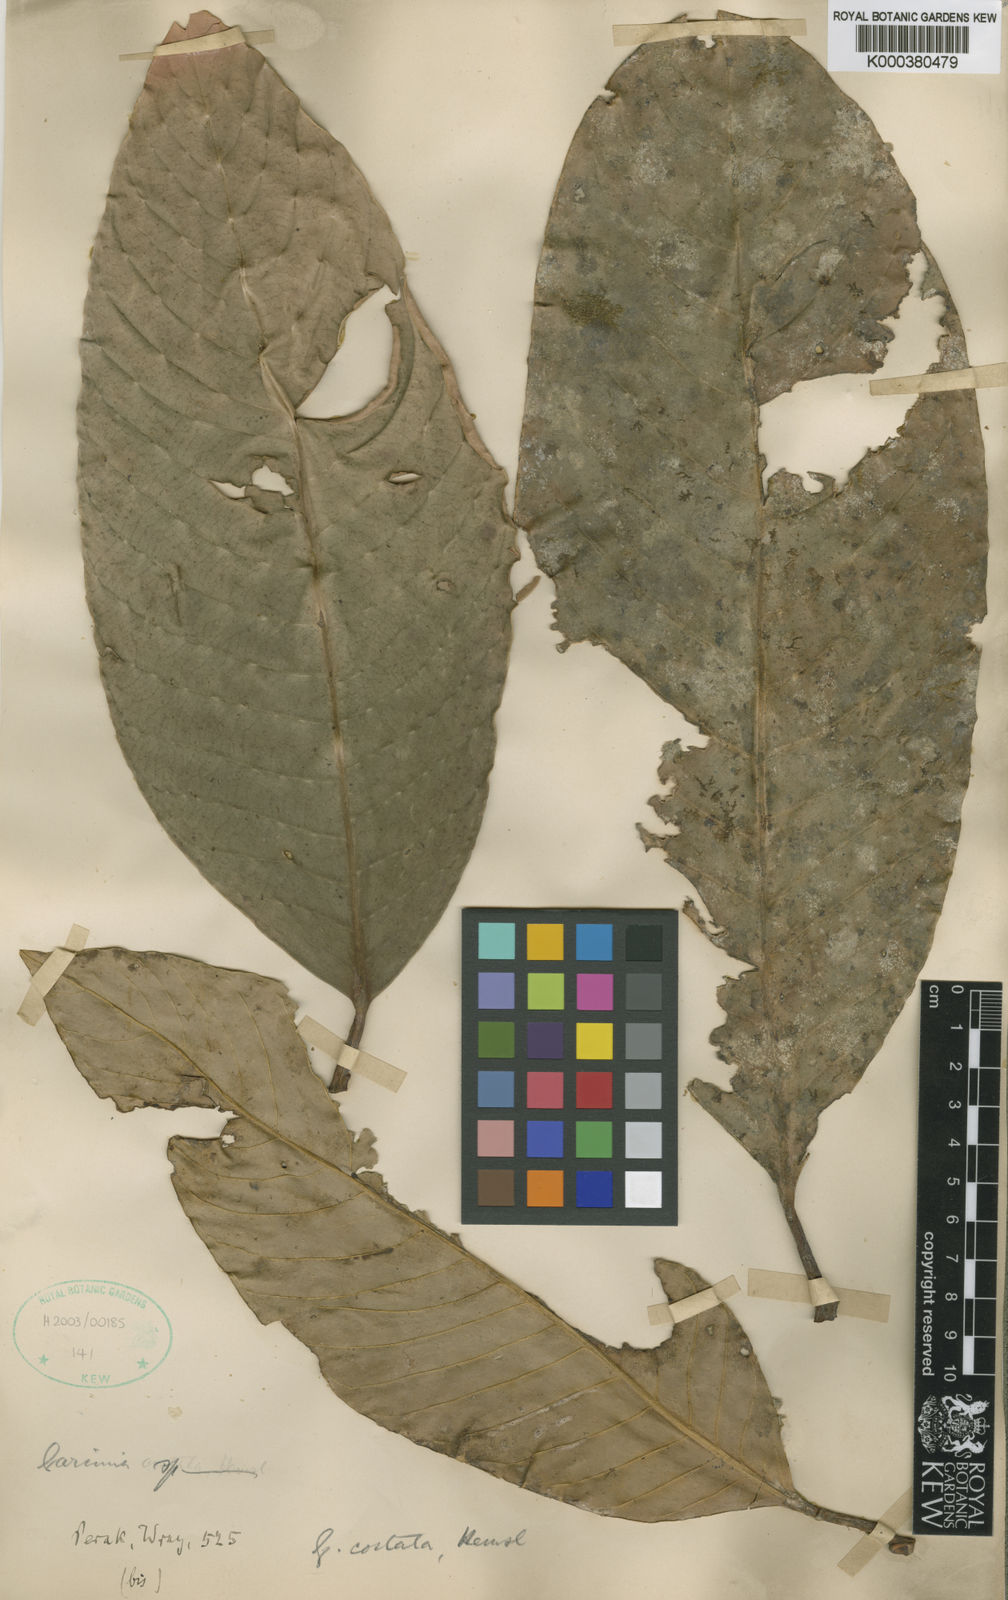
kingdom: Plantae
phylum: Tracheophyta
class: Magnoliopsida
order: Malpighiales
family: Clusiaceae
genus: Garcinia
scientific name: Garcinia costata
